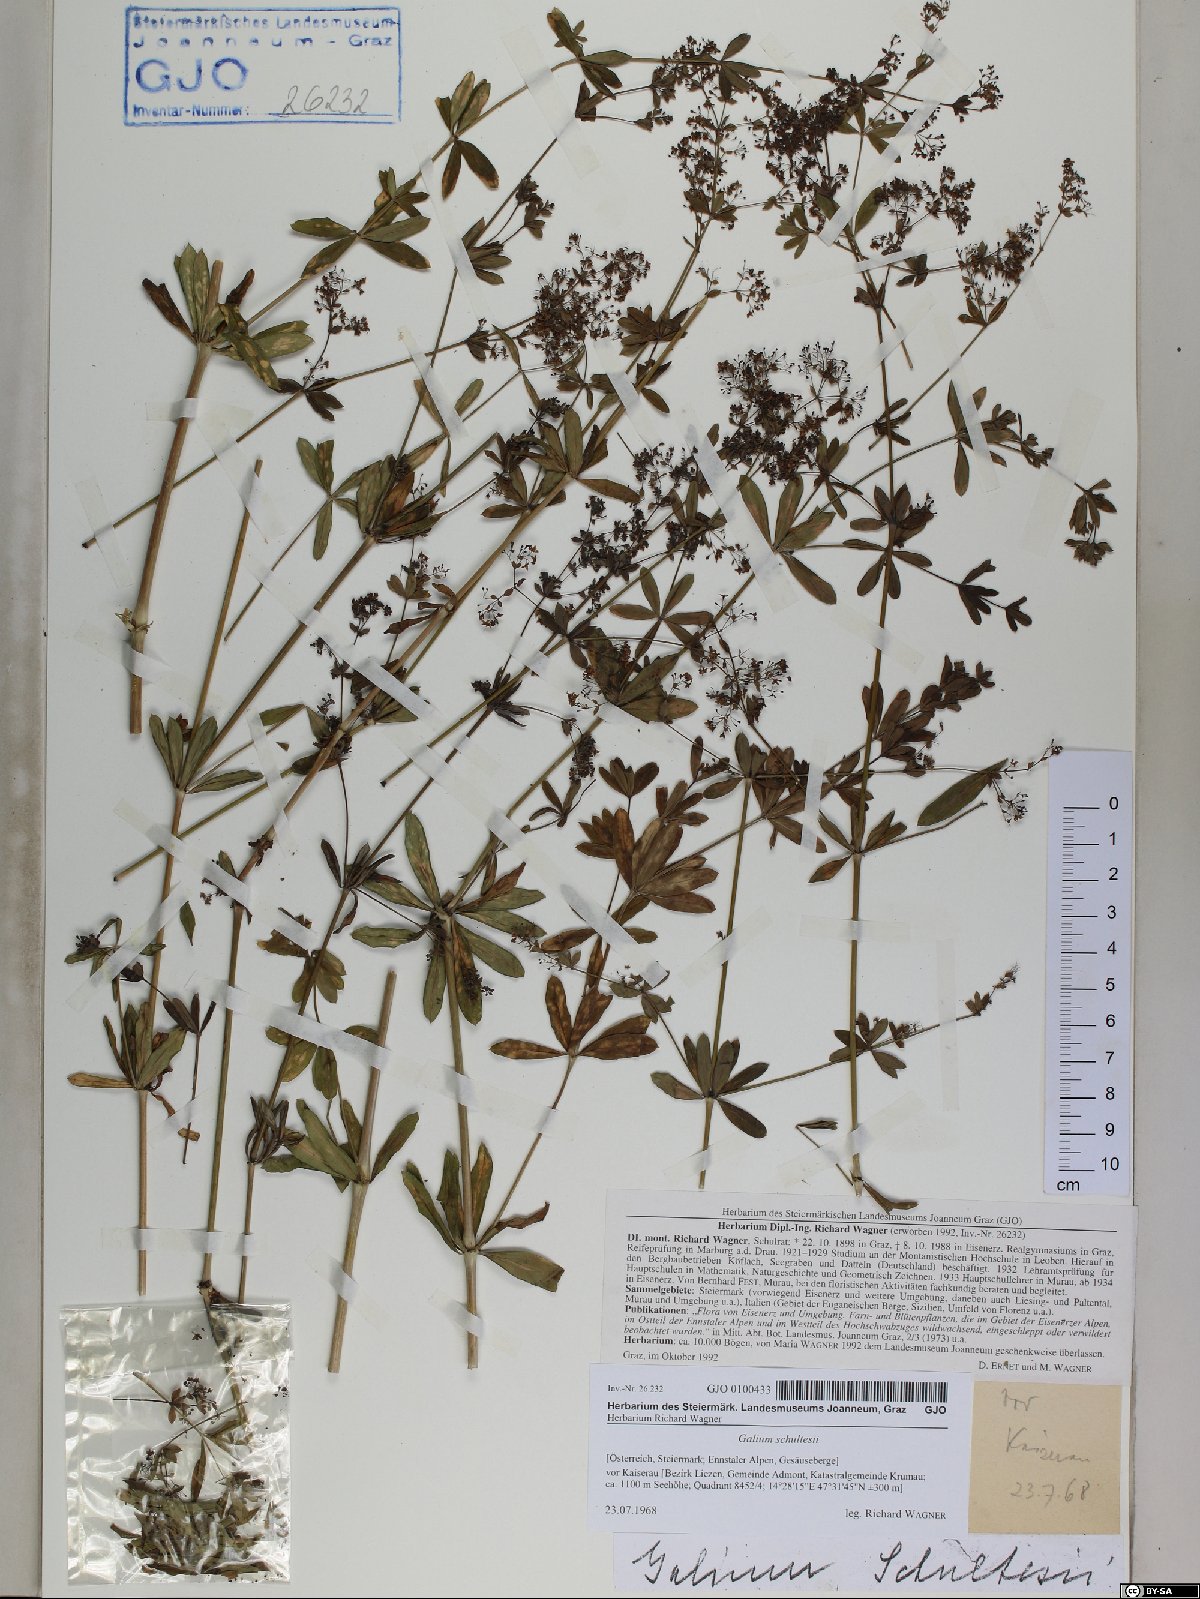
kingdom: Plantae
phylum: Tracheophyta
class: Magnoliopsida
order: Gentianales
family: Rubiaceae
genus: Galium
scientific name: Galium intermedium
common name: Bedstraw
